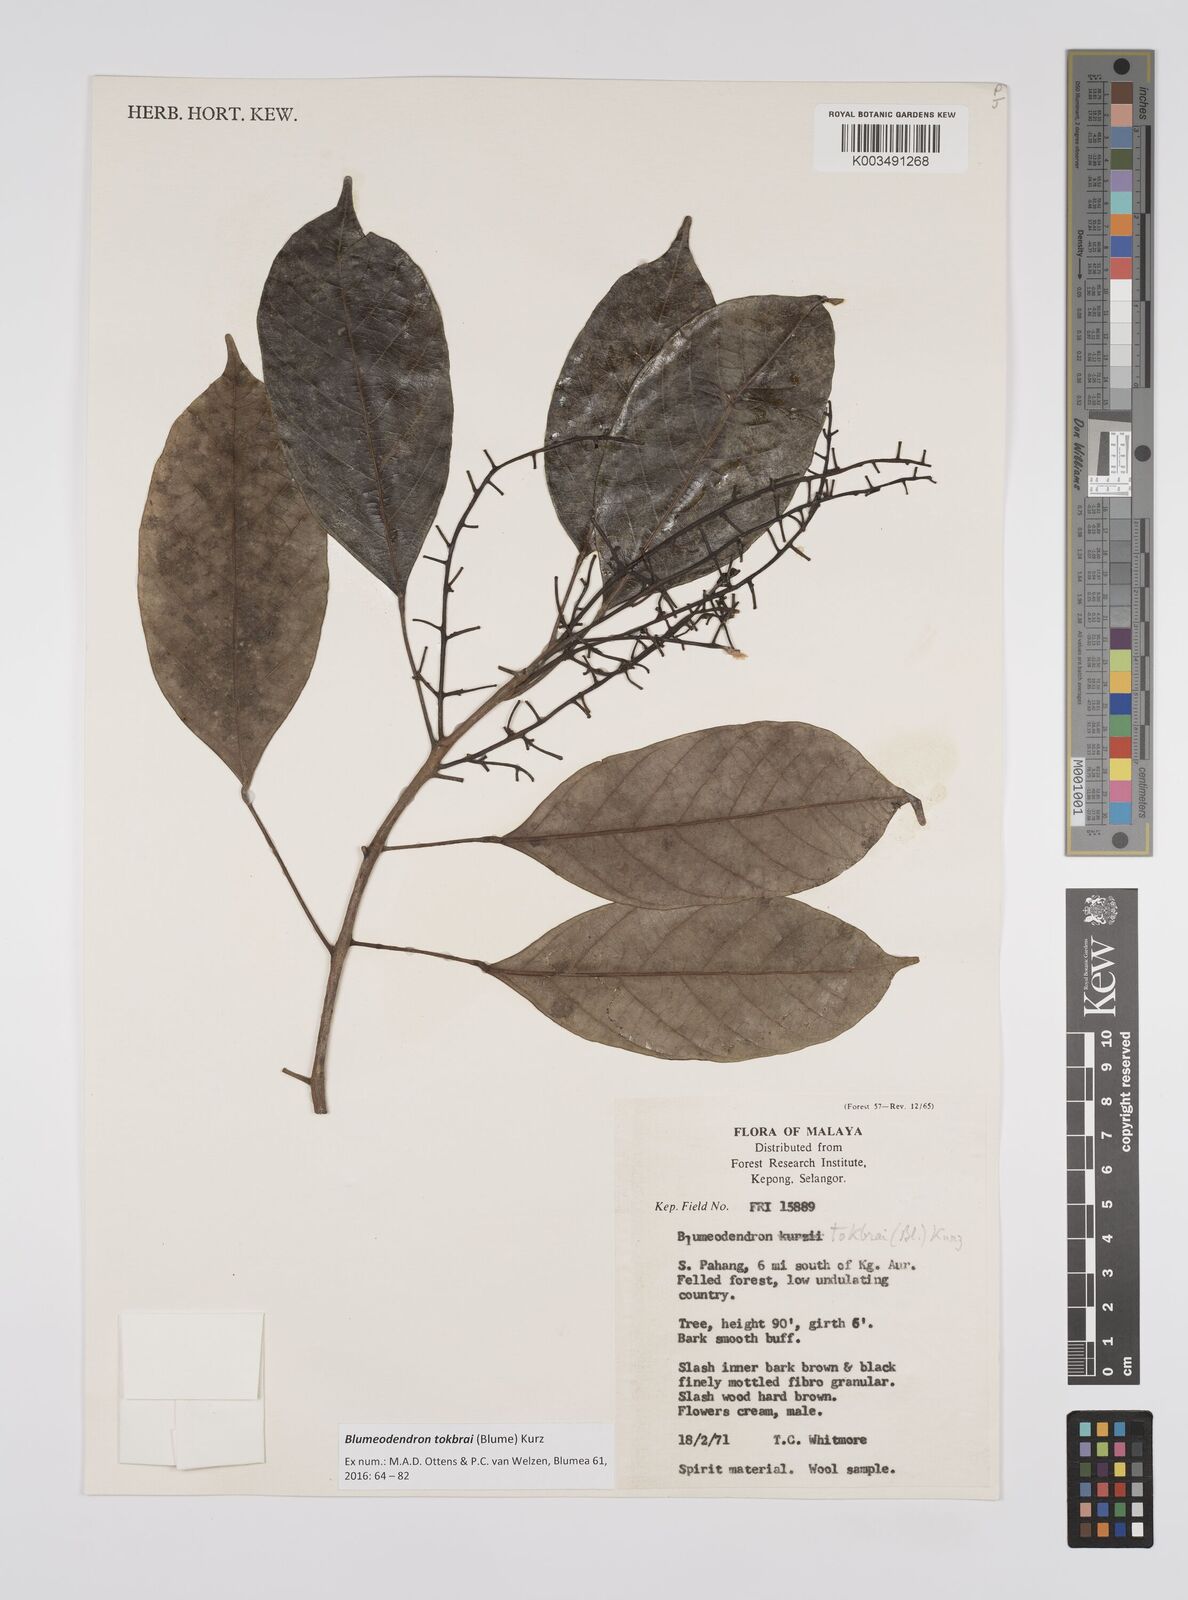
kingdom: Plantae
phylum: Tracheophyta
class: Magnoliopsida
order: Malpighiales
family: Euphorbiaceae
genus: Blumeodendron
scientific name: Blumeodendron tokbrai
